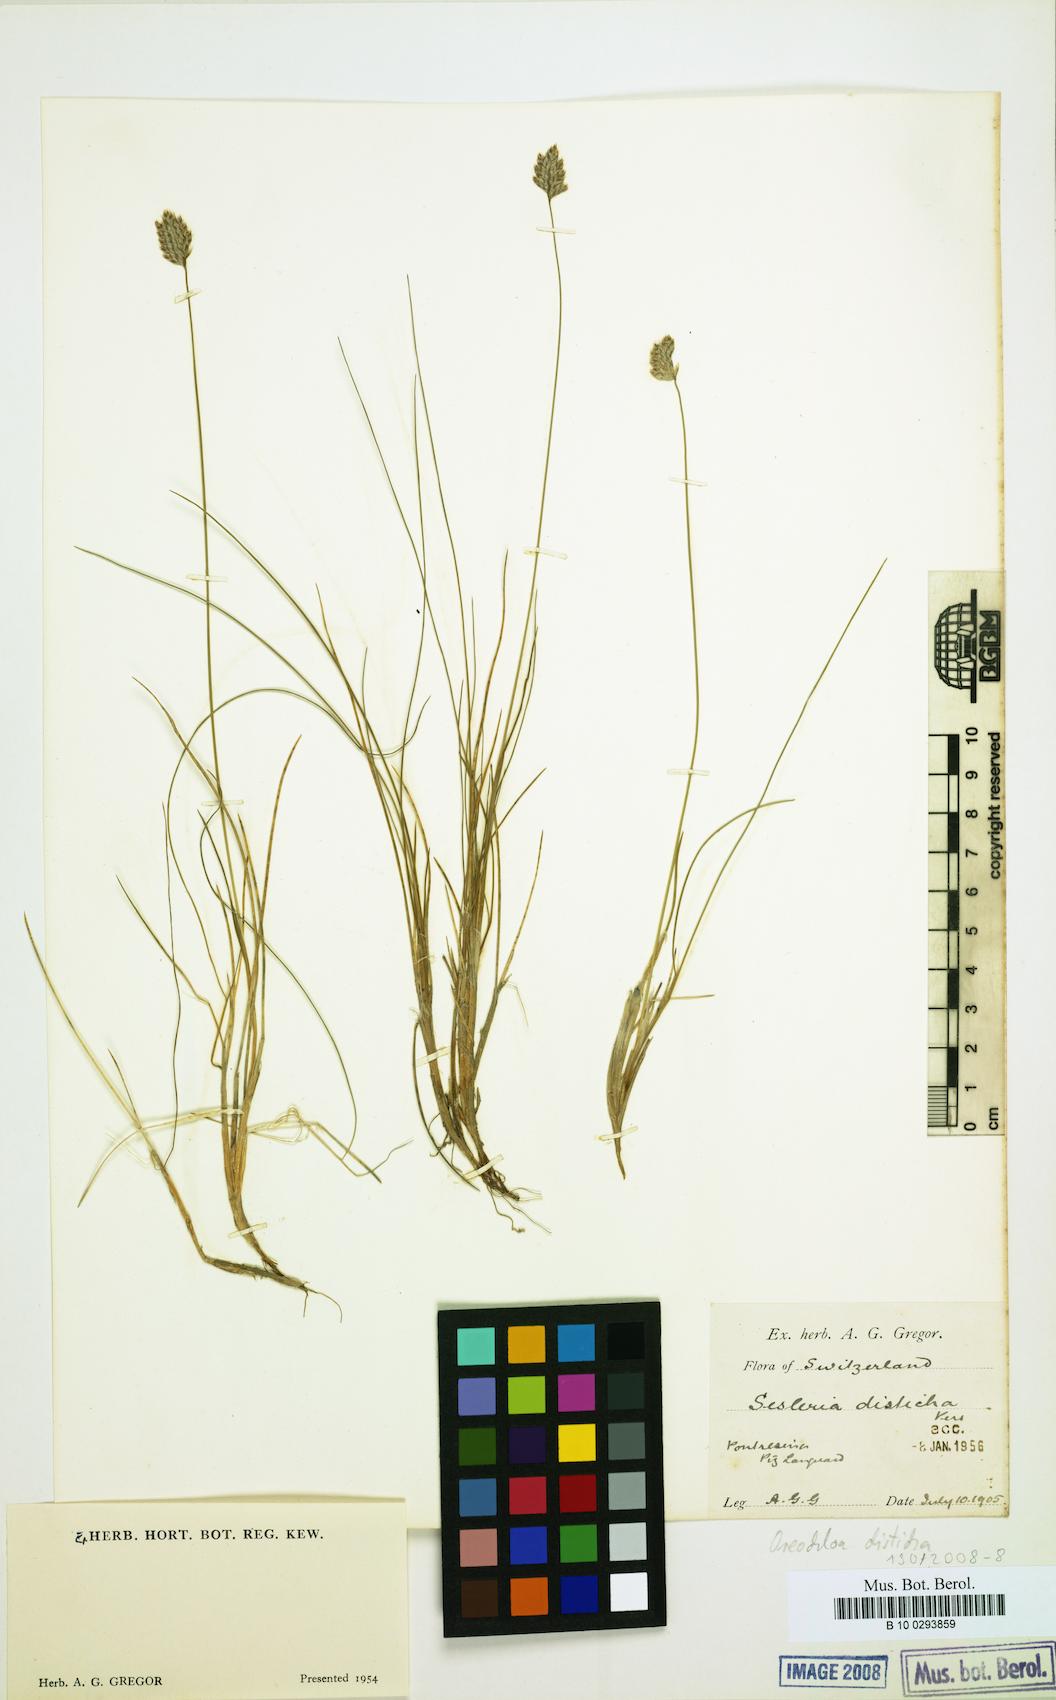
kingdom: Plantae
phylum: Tracheophyta
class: Liliopsida
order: Poales
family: Poaceae
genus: Oreochloa
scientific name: Oreochloa disticha
